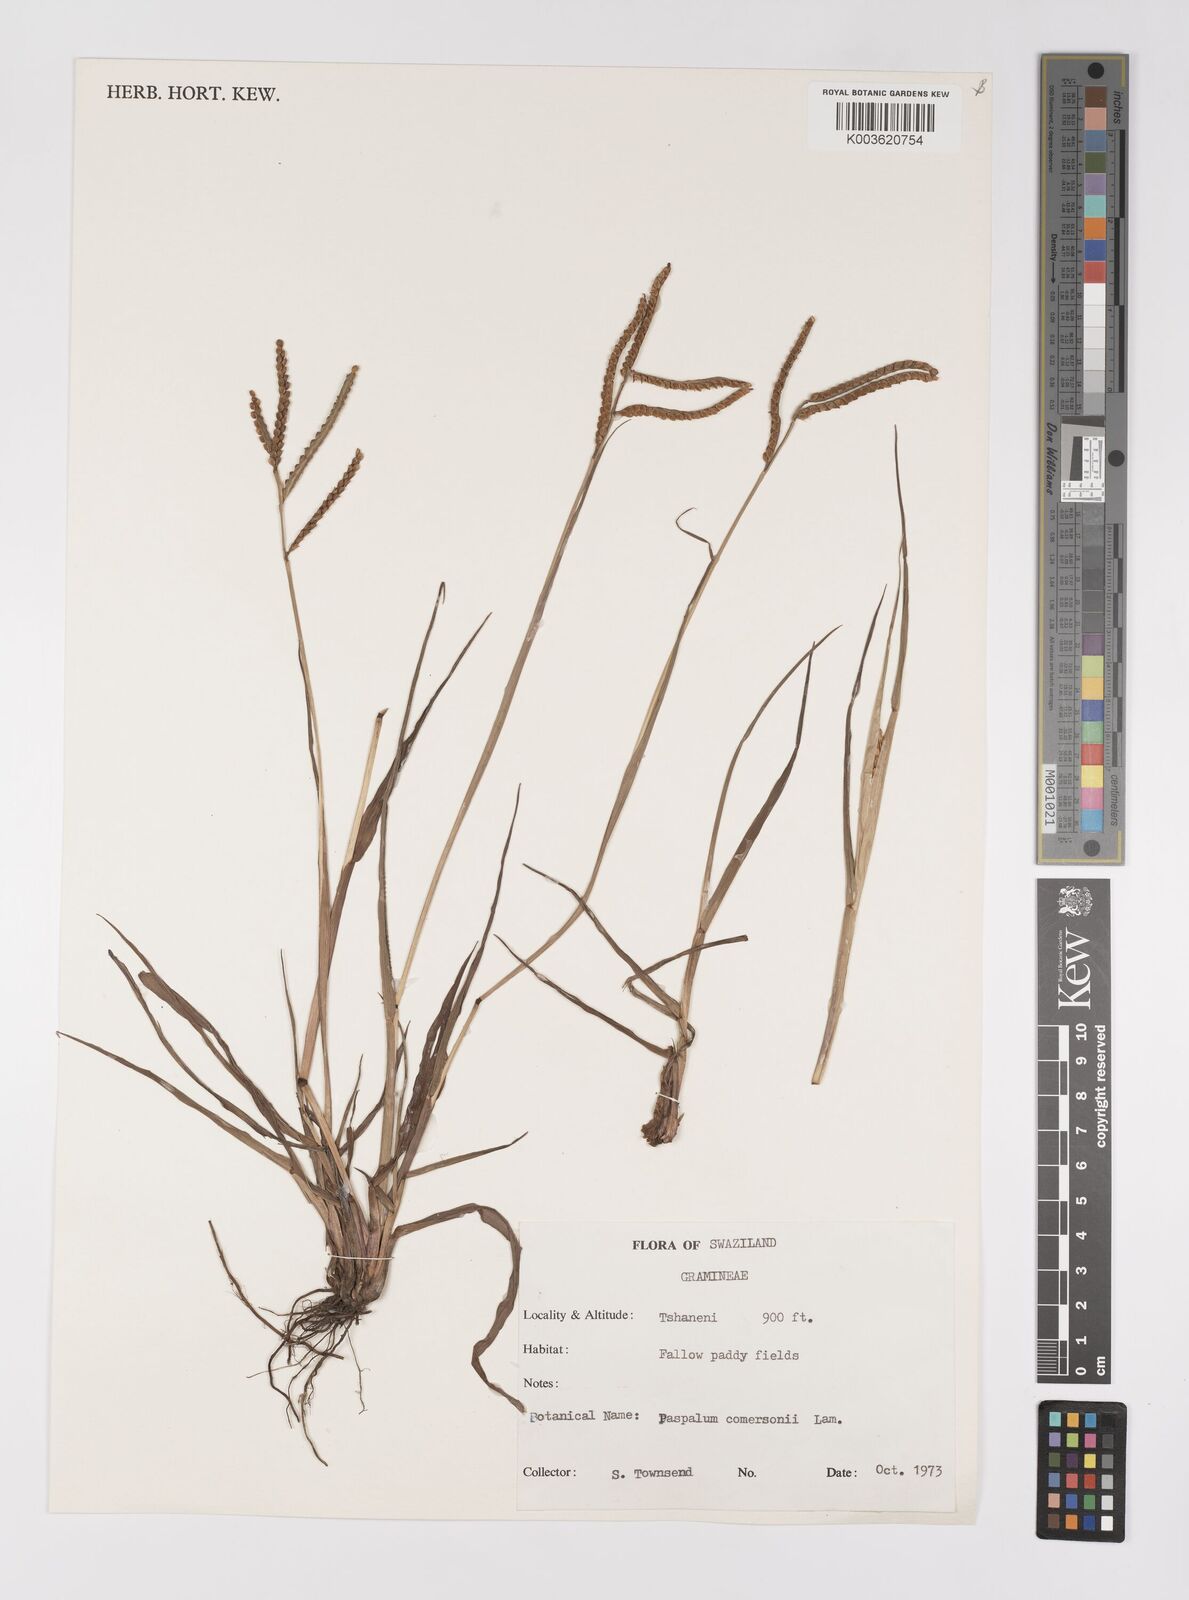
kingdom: Plantae
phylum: Tracheophyta
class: Liliopsida
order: Poales
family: Poaceae
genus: Paspalum
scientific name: Paspalum scrobiculatum
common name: Kodo millet
